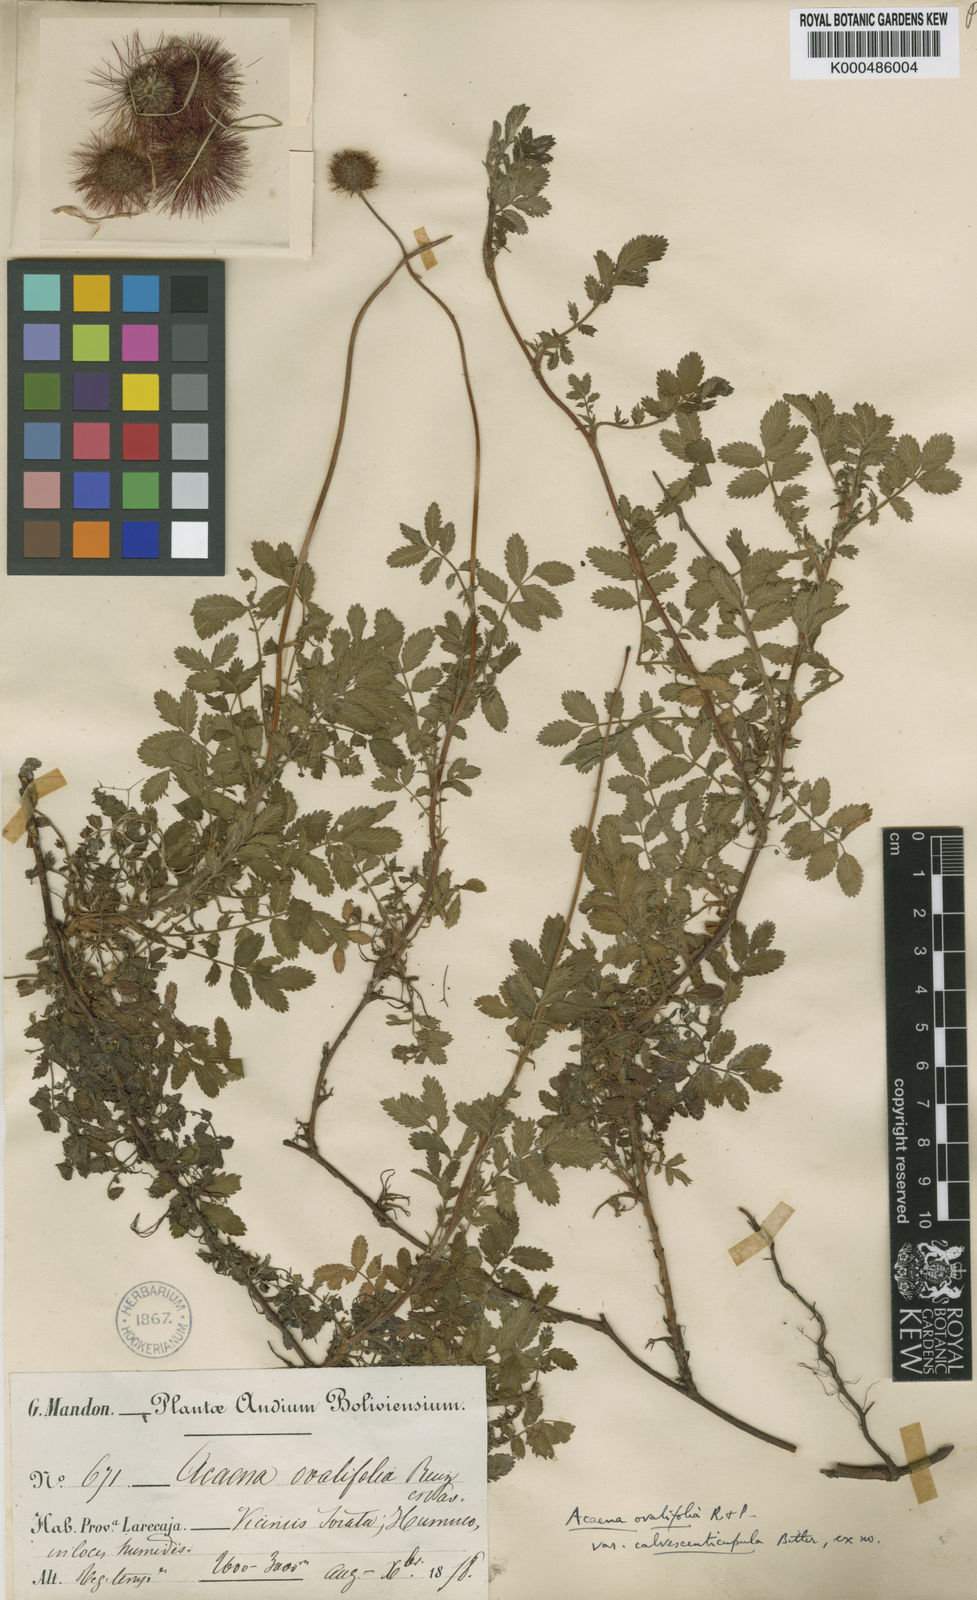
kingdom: Plantae
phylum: Tracheophyta
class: Magnoliopsida
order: Rosales
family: Rosaceae
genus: Acaena
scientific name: Acaena ovalifolia
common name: Two-spined acaena
